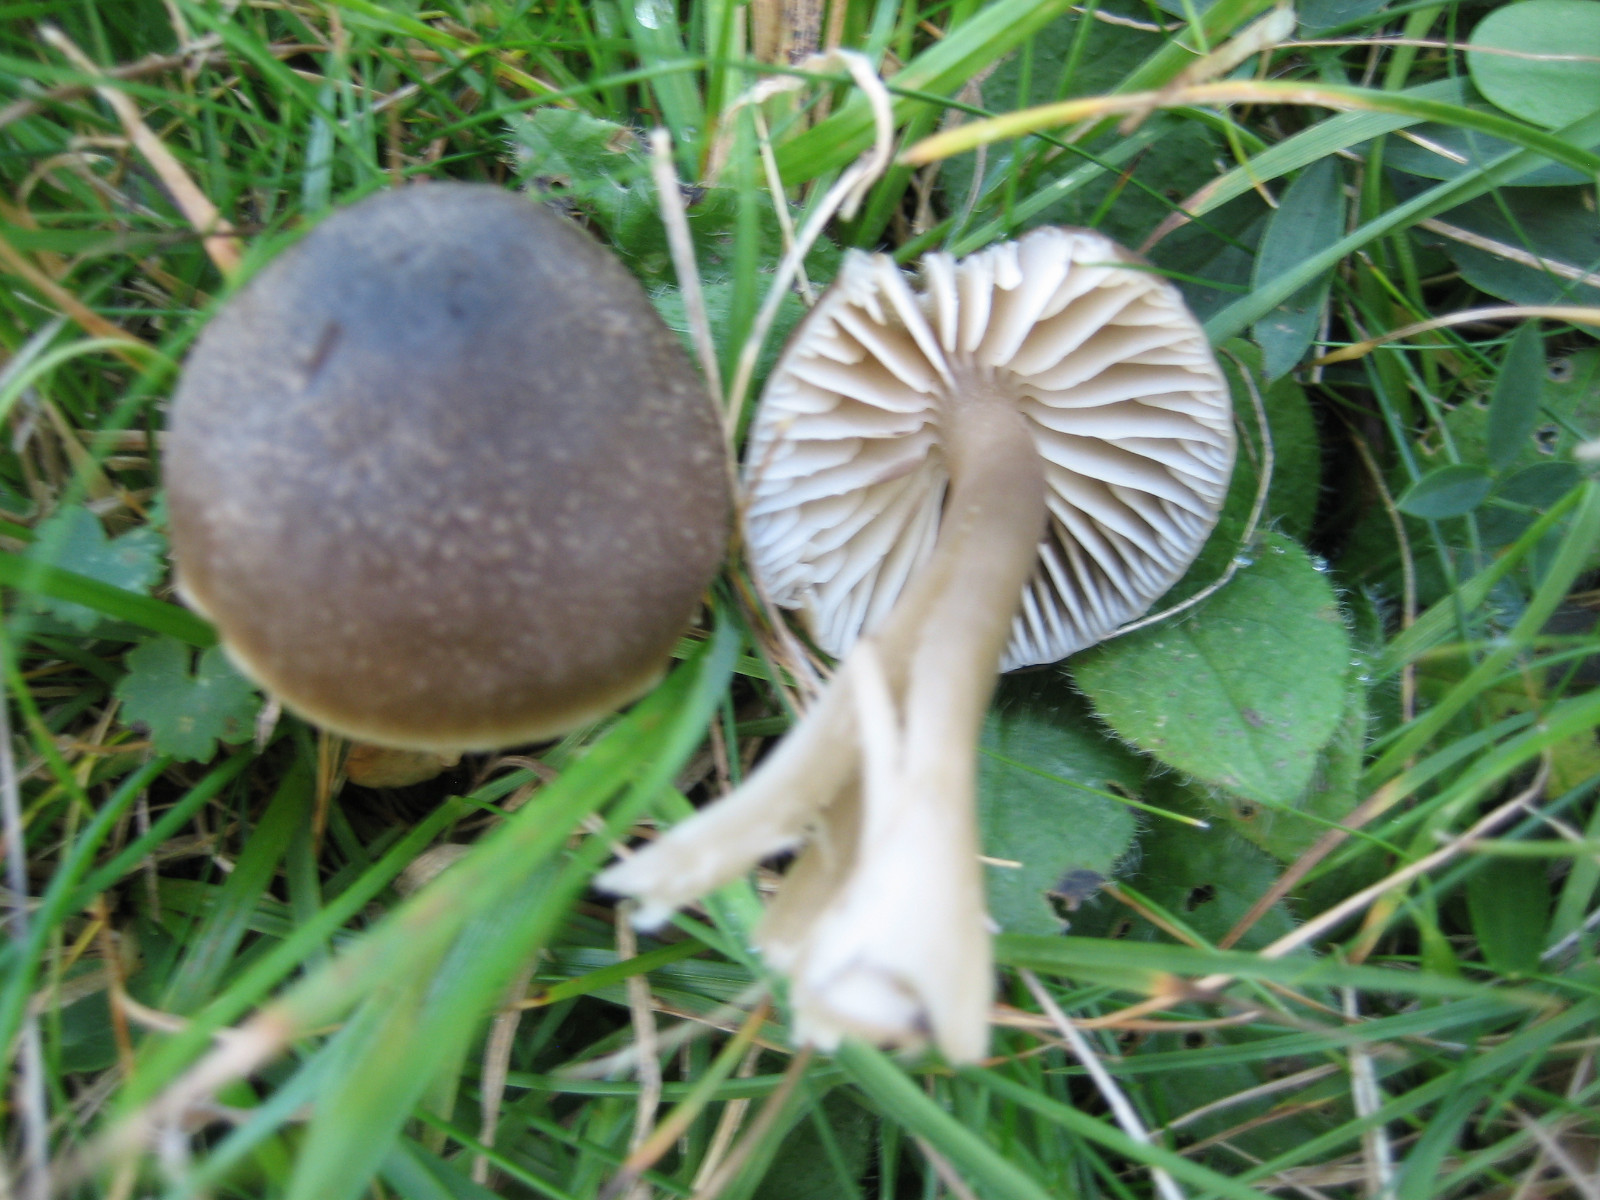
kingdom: Fungi
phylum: Basidiomycota
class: Agaricomycetes
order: Agaricales
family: Hygrophoraceae
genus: Neohygrocybe
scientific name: Neohygrocybe nitrata
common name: stinkende vokshat
